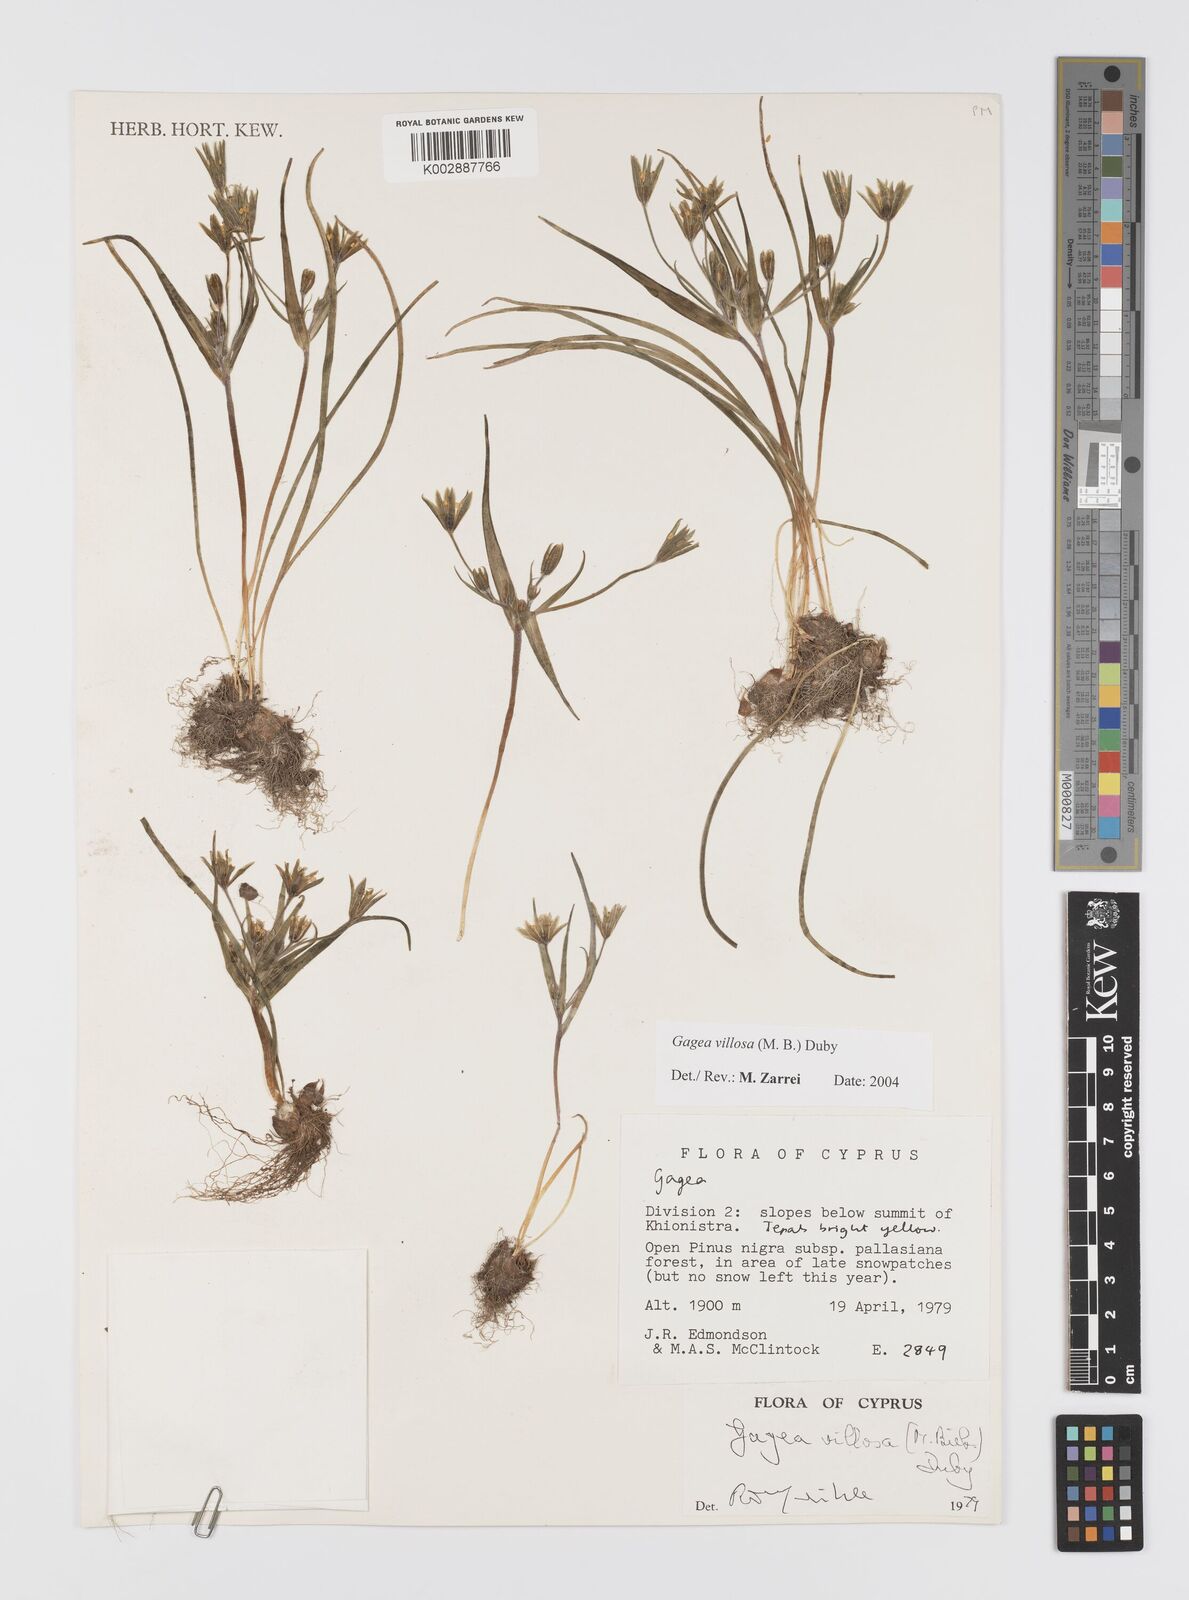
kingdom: Plantae
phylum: Tracheophyta
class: Liliopsida
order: Liliales
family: Liliaceae
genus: Gagea
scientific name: Gagea villosa
